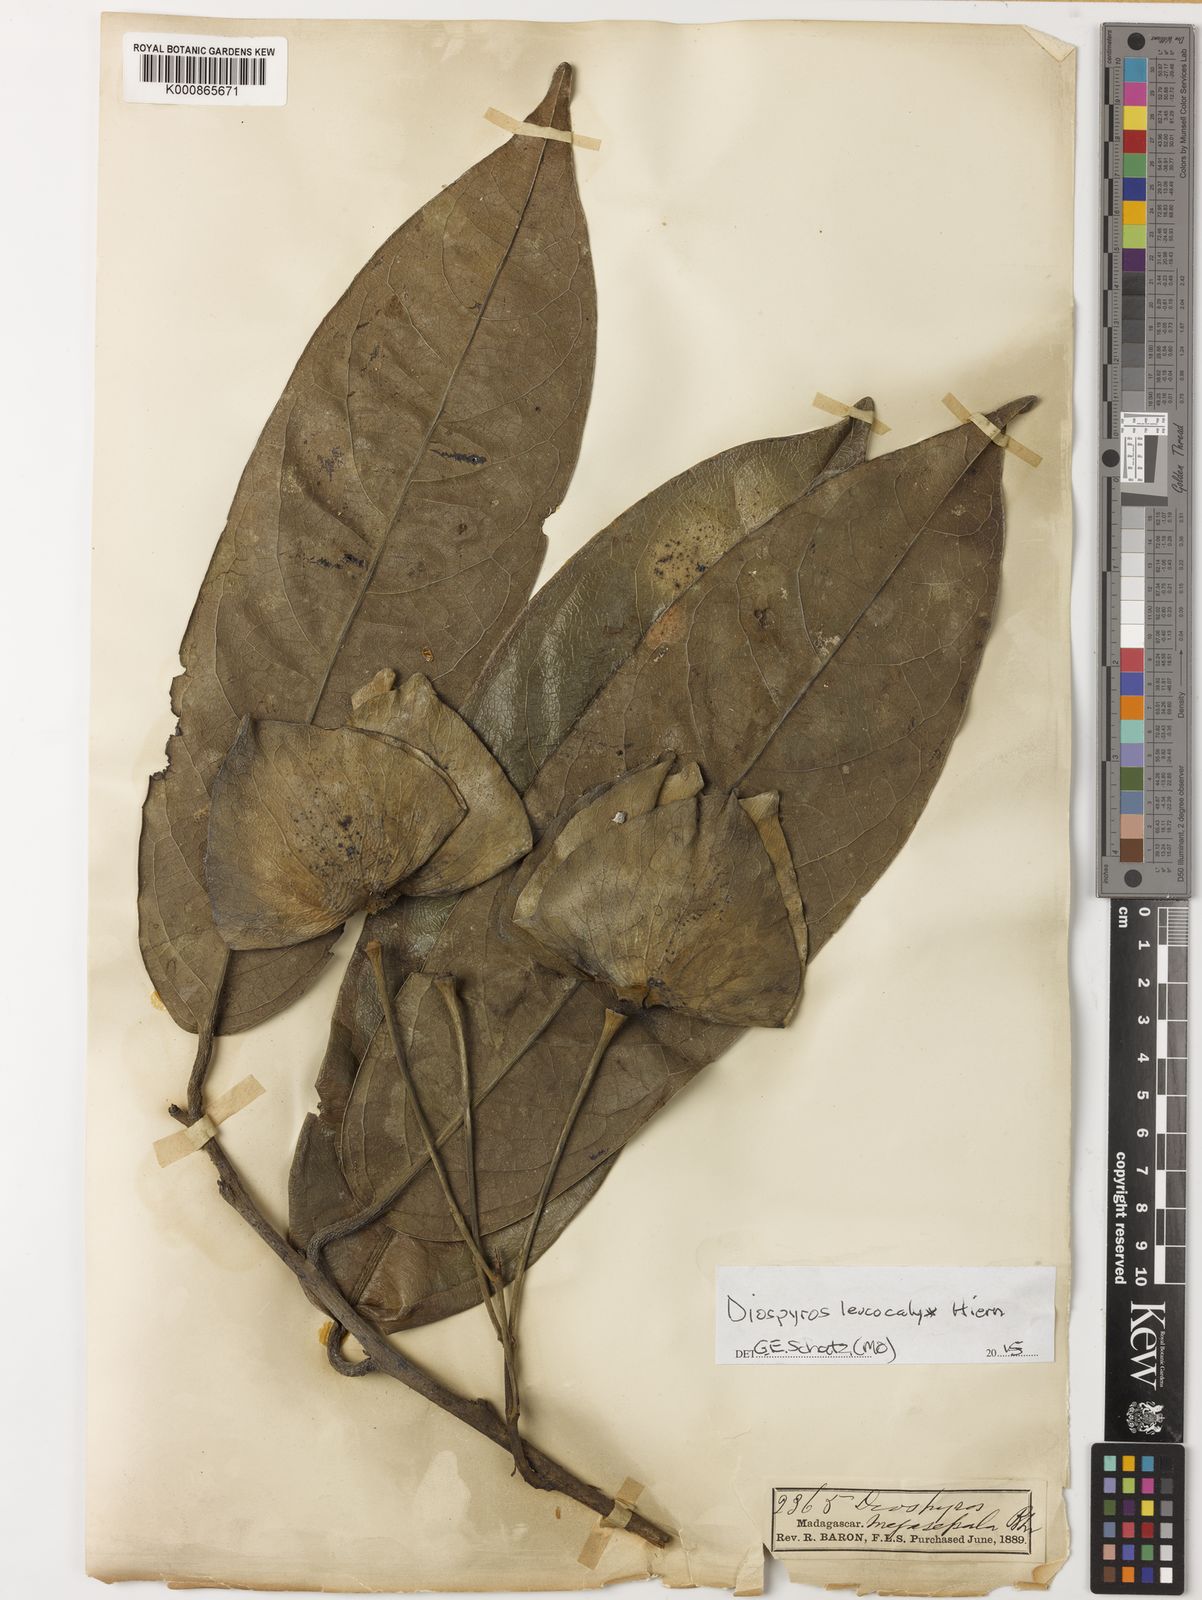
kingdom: Plantae
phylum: Tracheophyta
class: Magnoliopsida
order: Ericales
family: Ebenaceae
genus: Diospyros
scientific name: Diospyros leucocalyx
